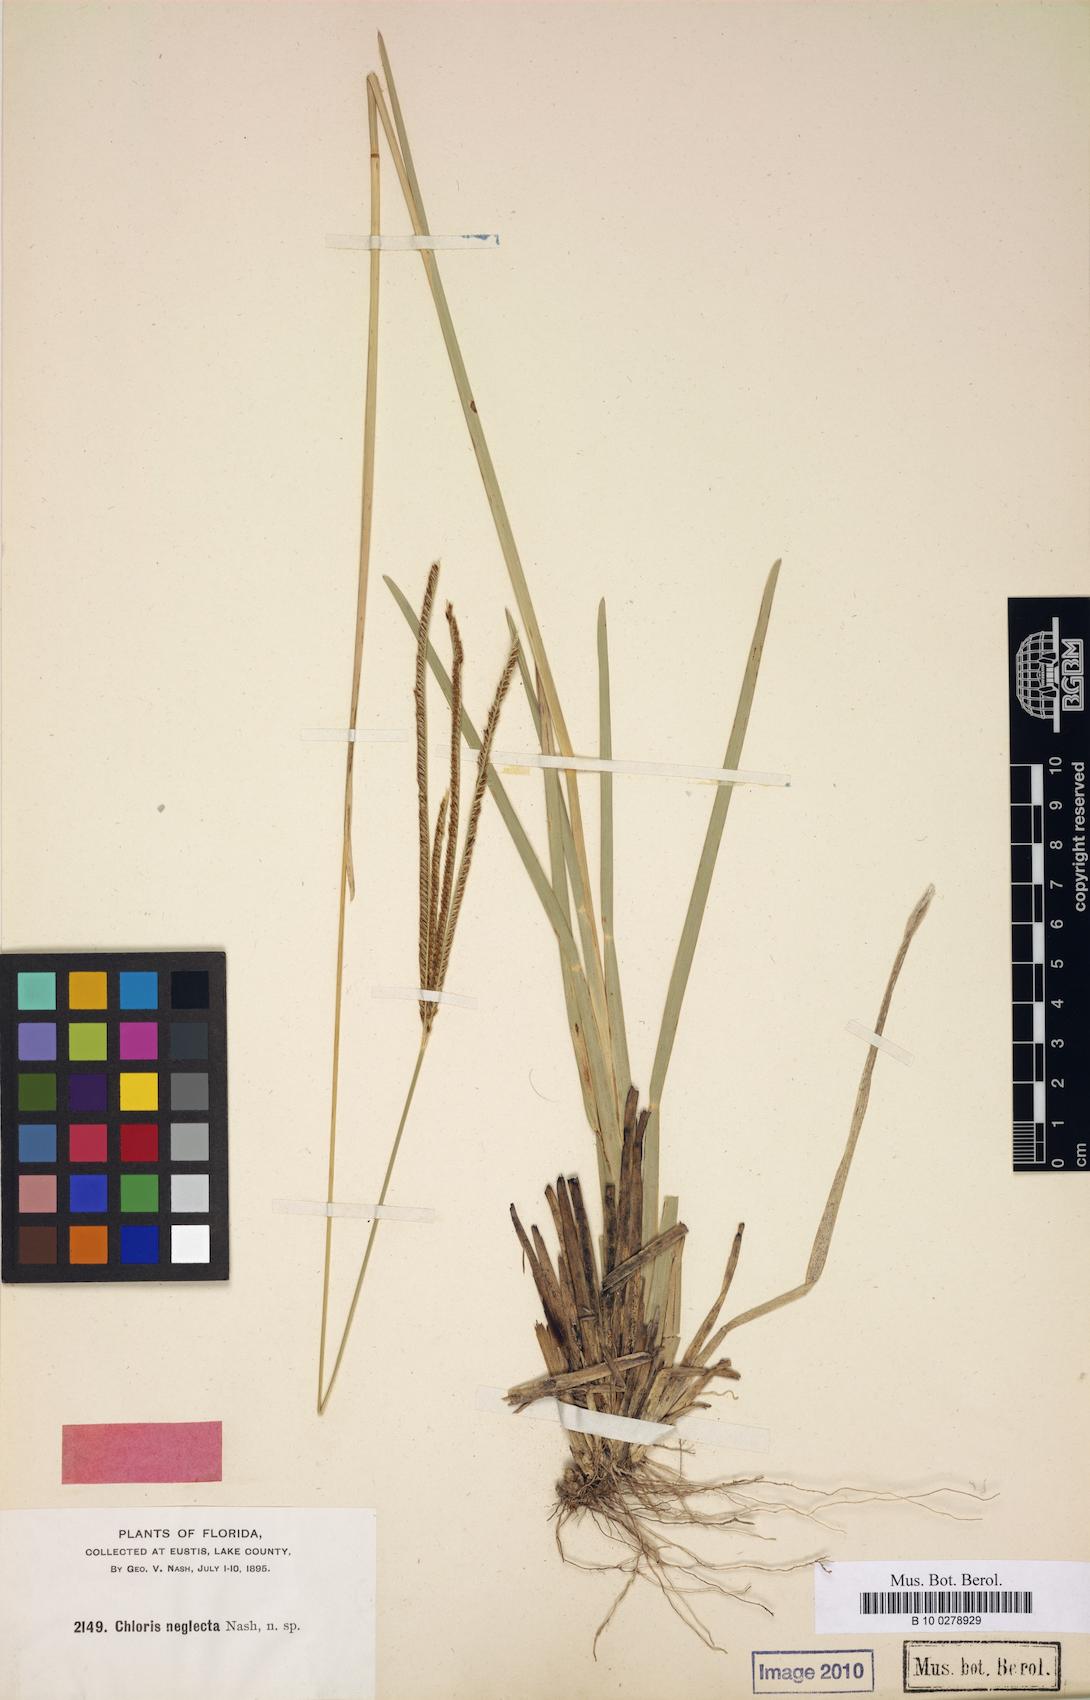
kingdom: Plantae
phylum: Tracheophyta
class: Liliopsida
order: Poales
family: Poaceae
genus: Eustachys
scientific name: Eustachys neglecta
